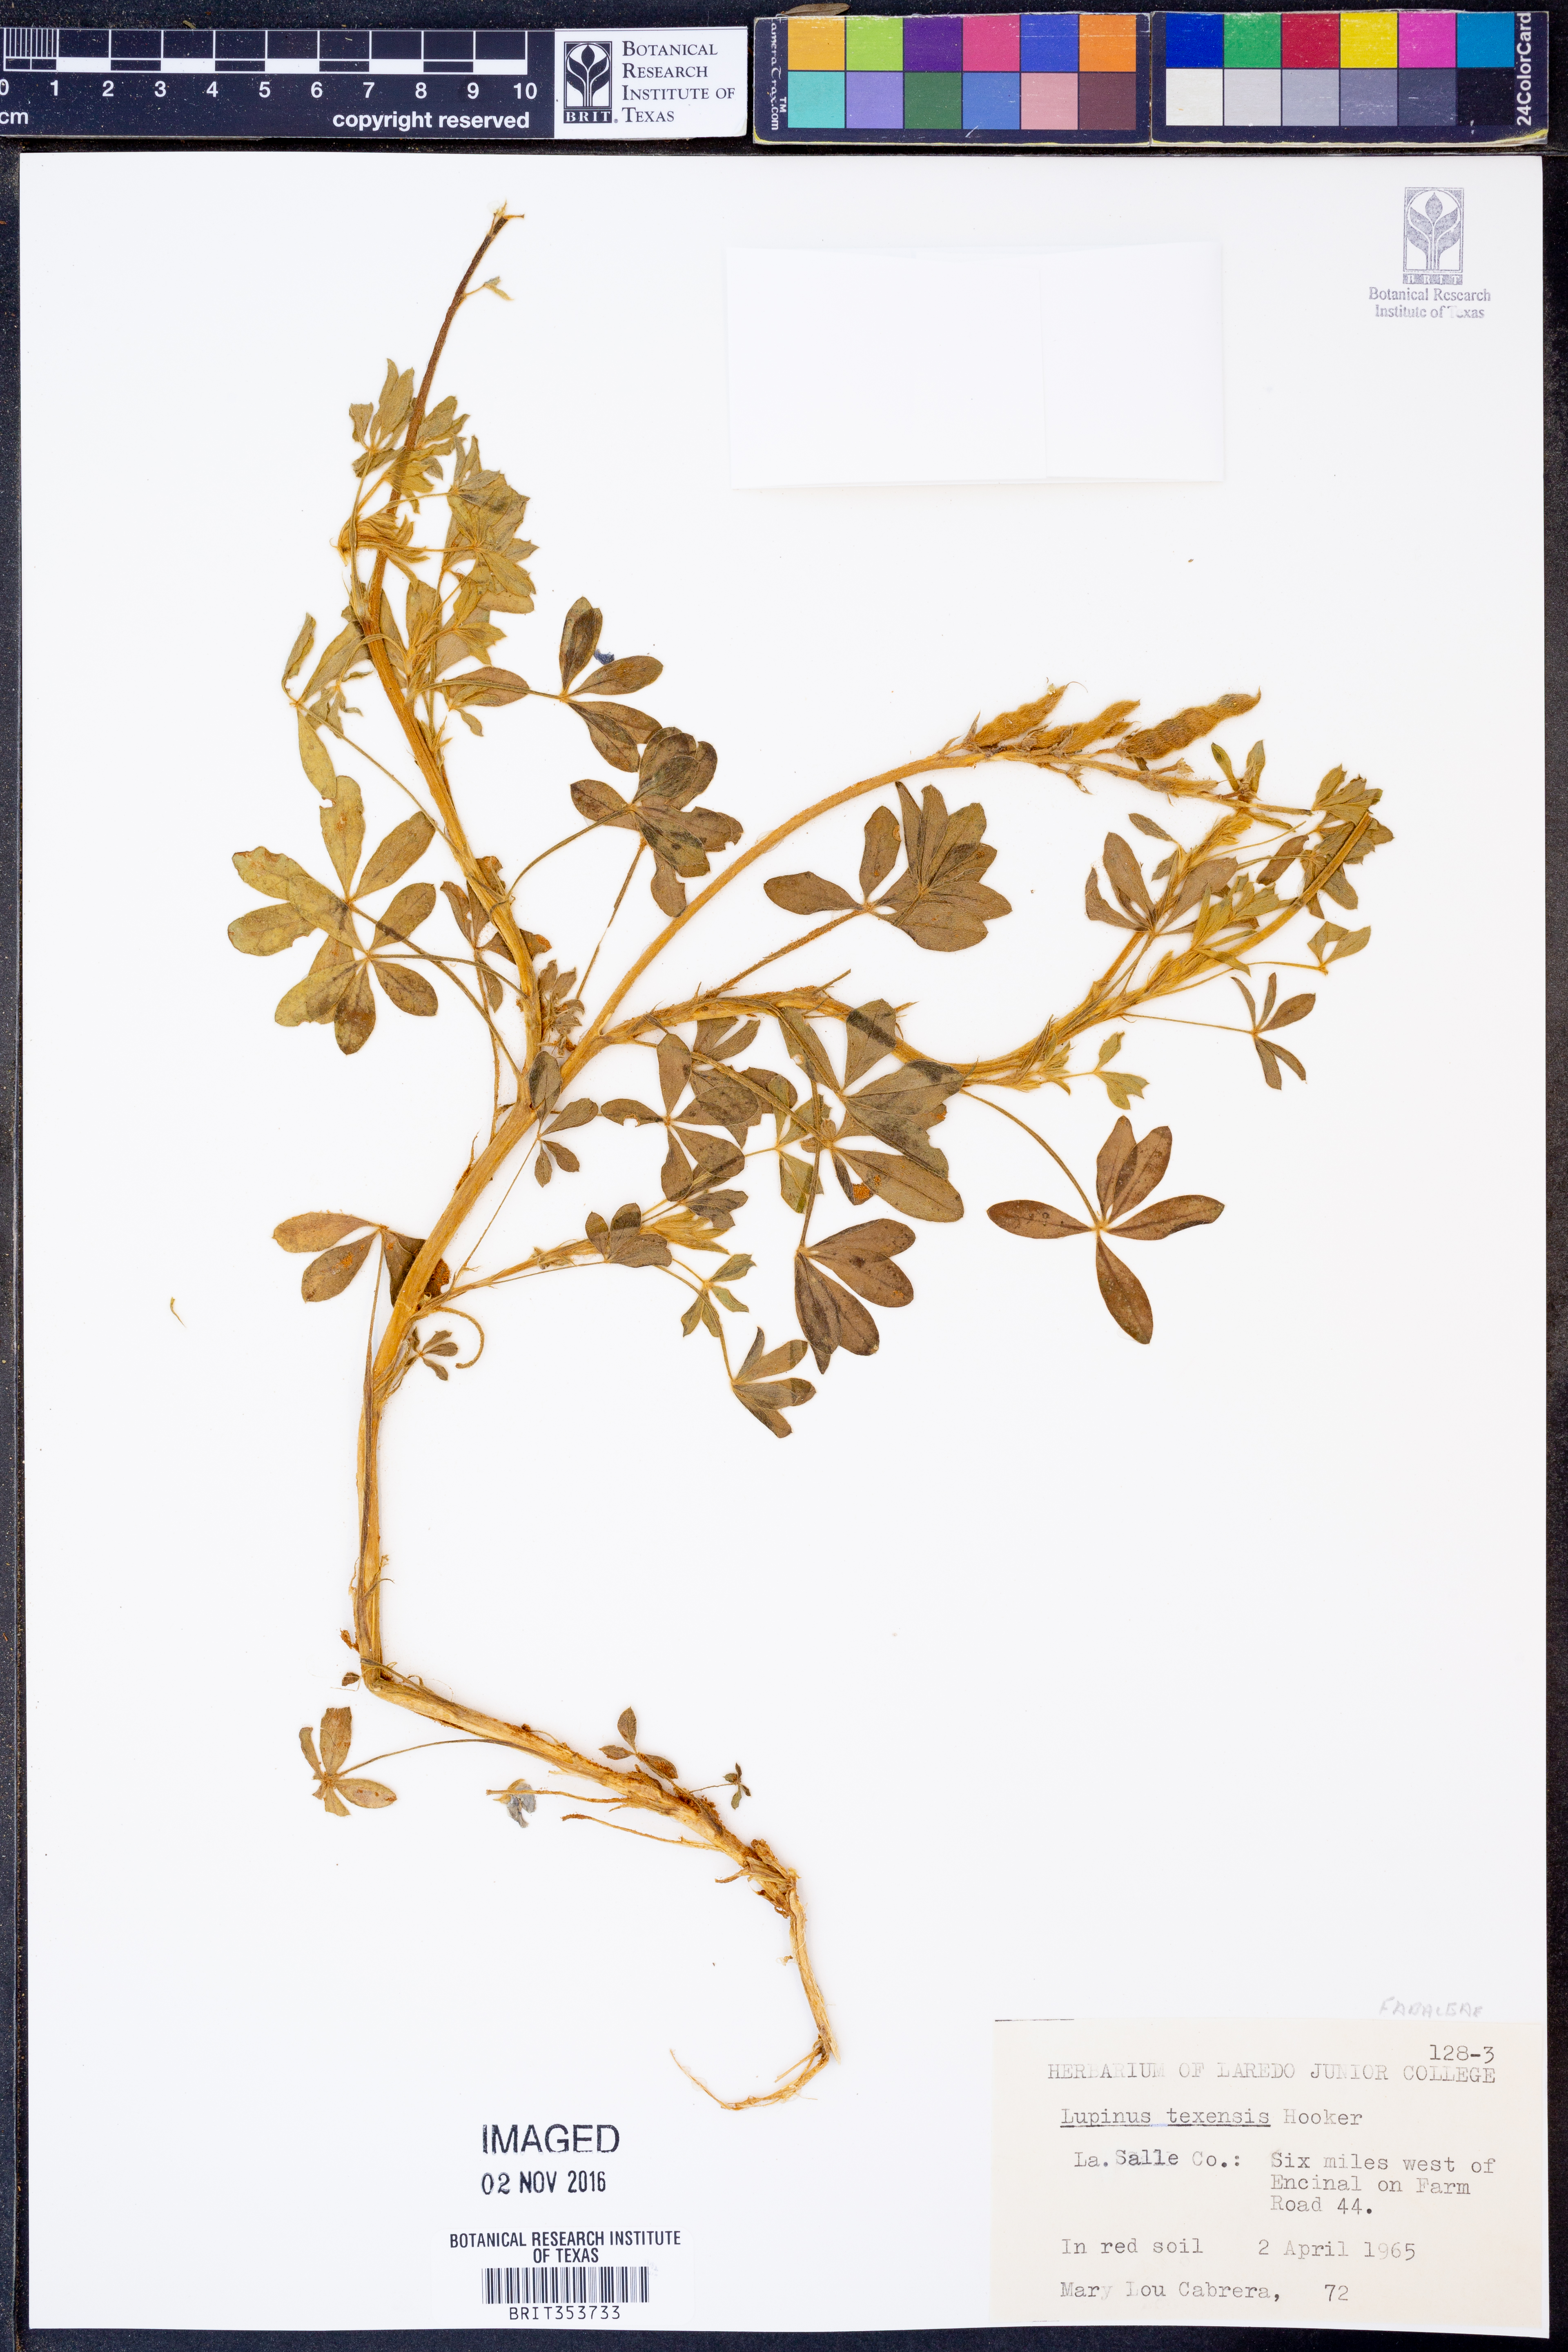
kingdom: Plantae
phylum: Tracheophyta
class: Magnoliopsida
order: Fabales
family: Fabaceae
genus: Lupinus
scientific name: Lupinus texensis
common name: Texas bluebonnet
